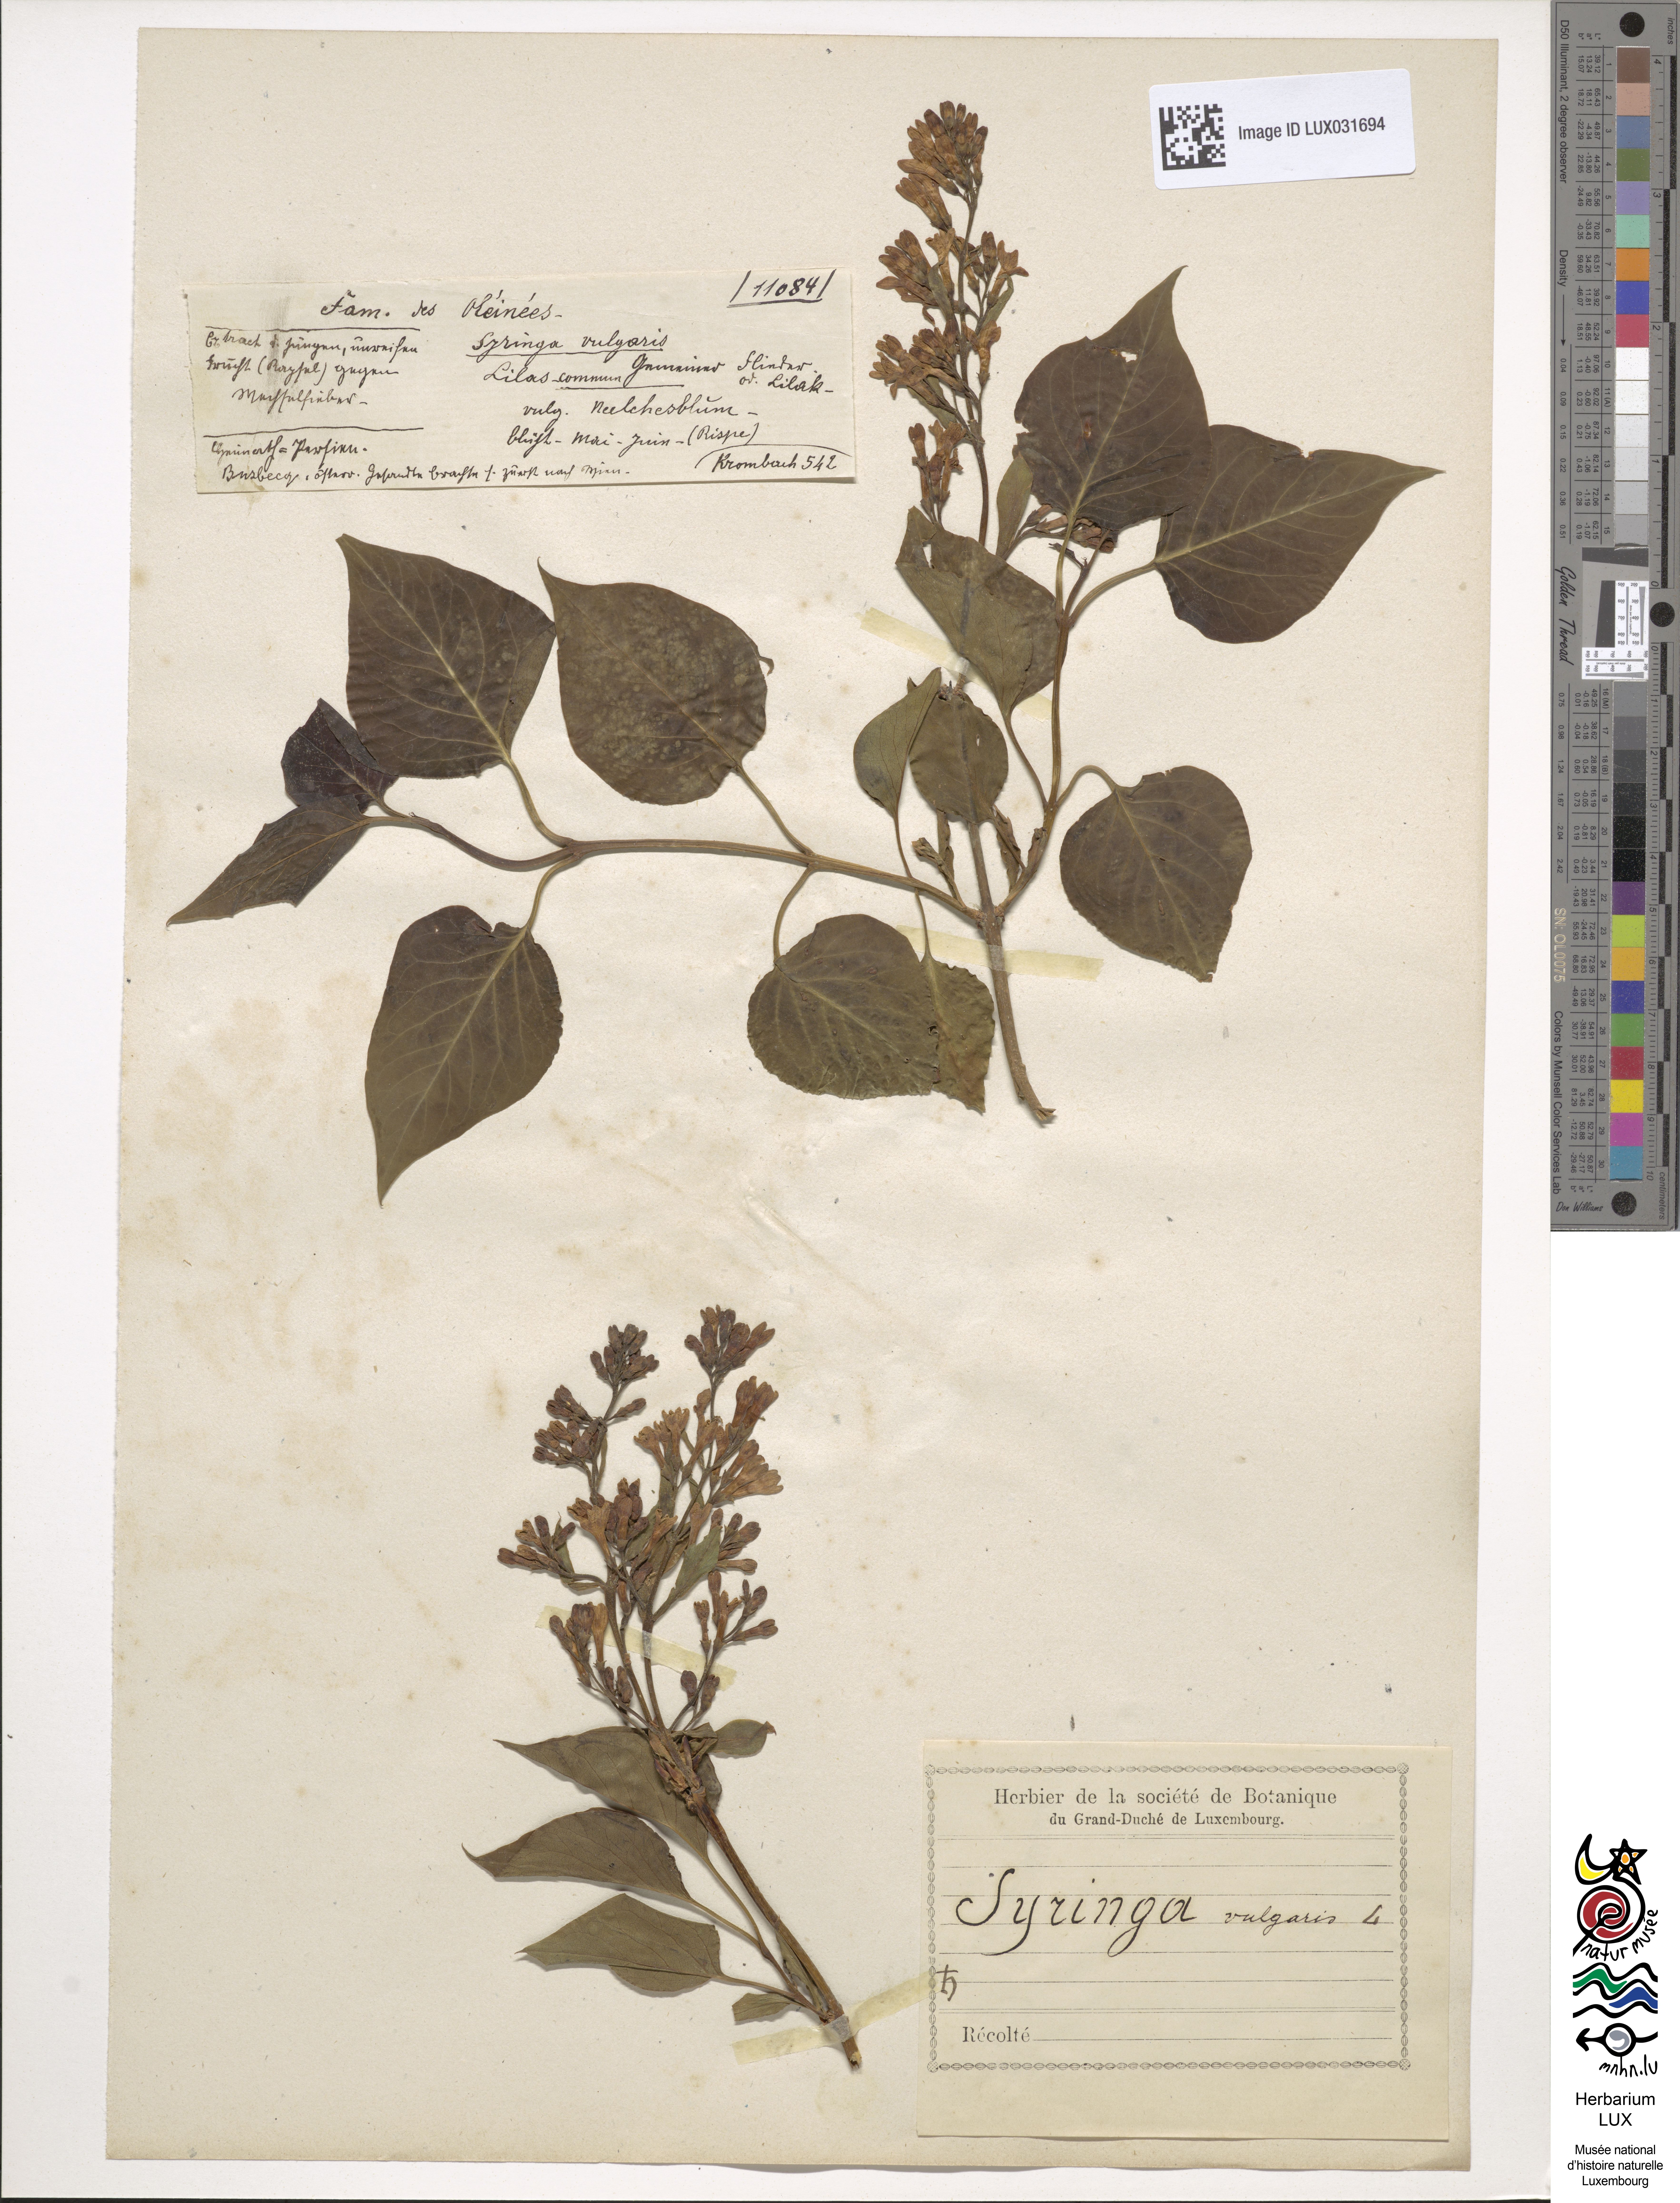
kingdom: Plantae
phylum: Tracheophyta
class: Magnoliopsida
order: Lamiales
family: Oleaceae
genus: Syringa
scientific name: Syringa vulgaris
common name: Common lilac
